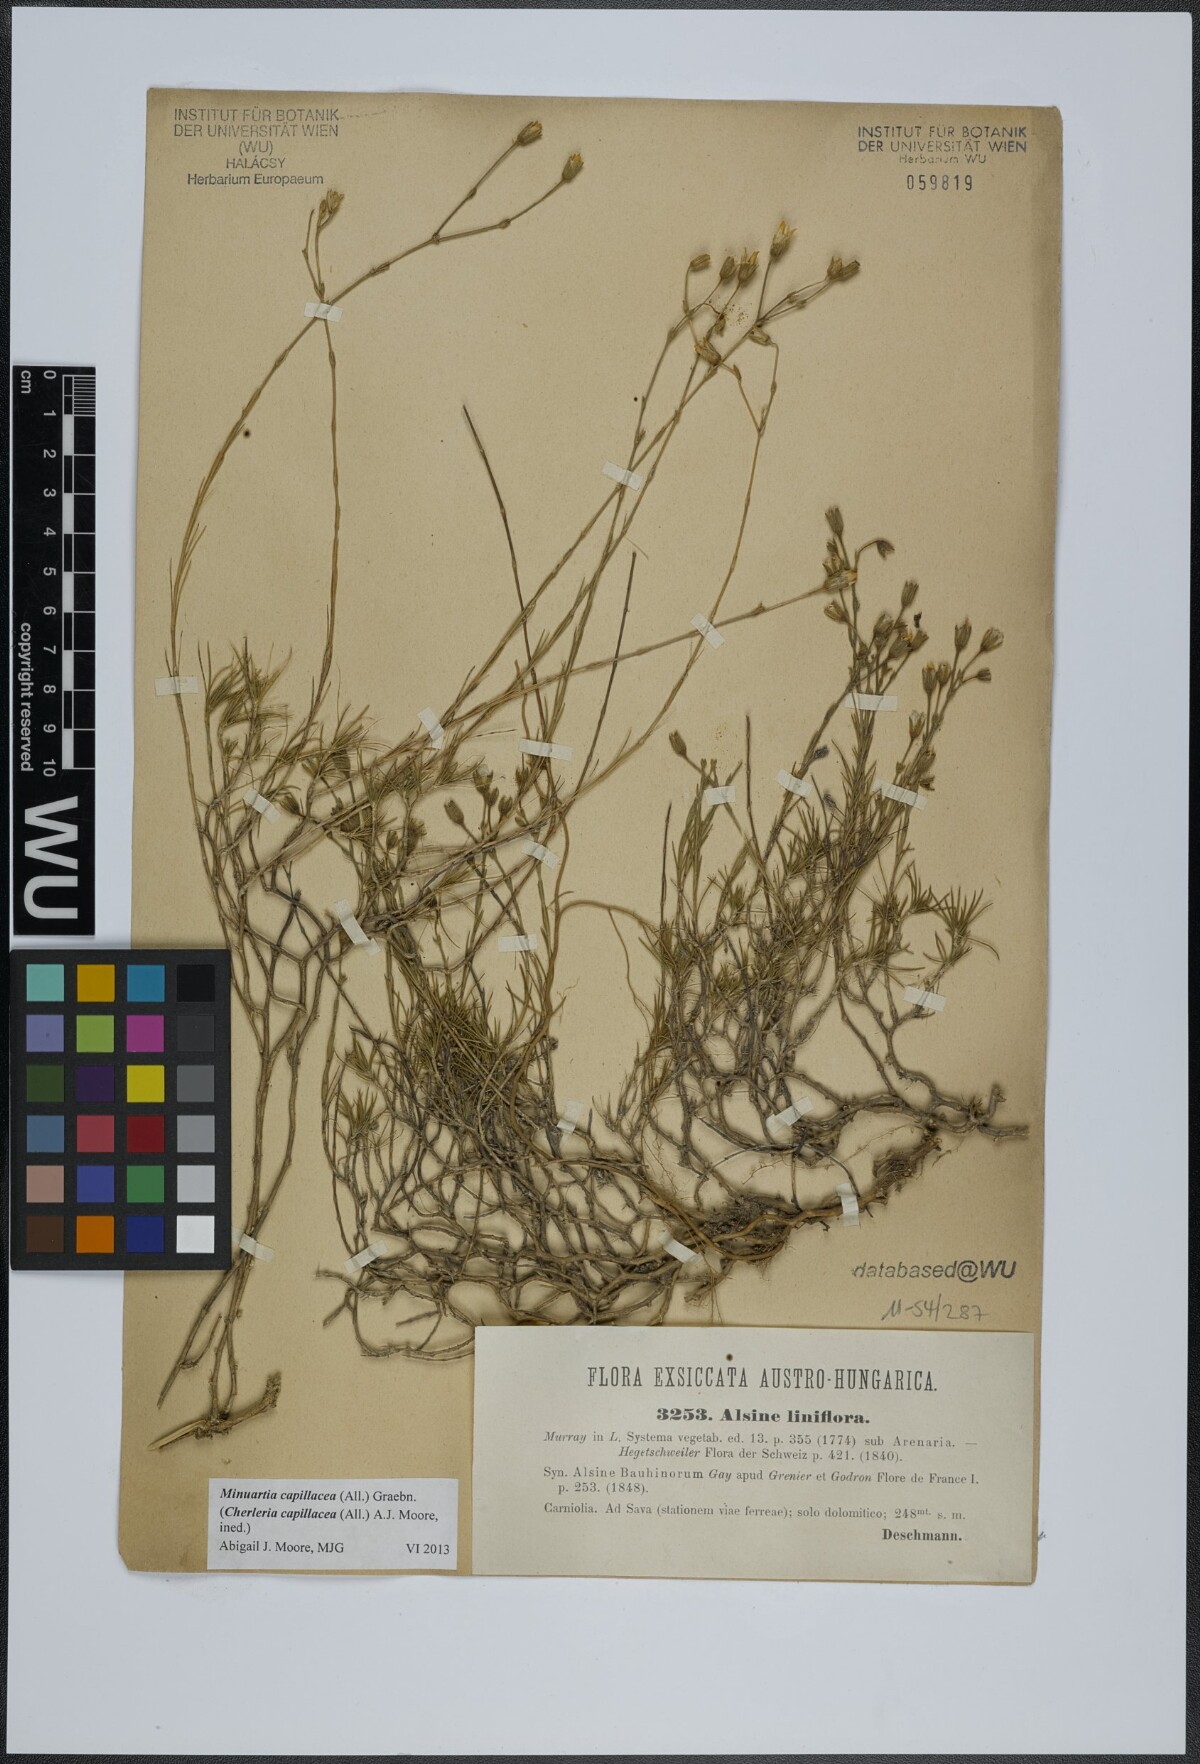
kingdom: Plantae
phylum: Tracheophyta
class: Magnoliopsida
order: Caryophyllales
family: Caryophyllaceae
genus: Cherleria
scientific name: Cherleria capillacea
